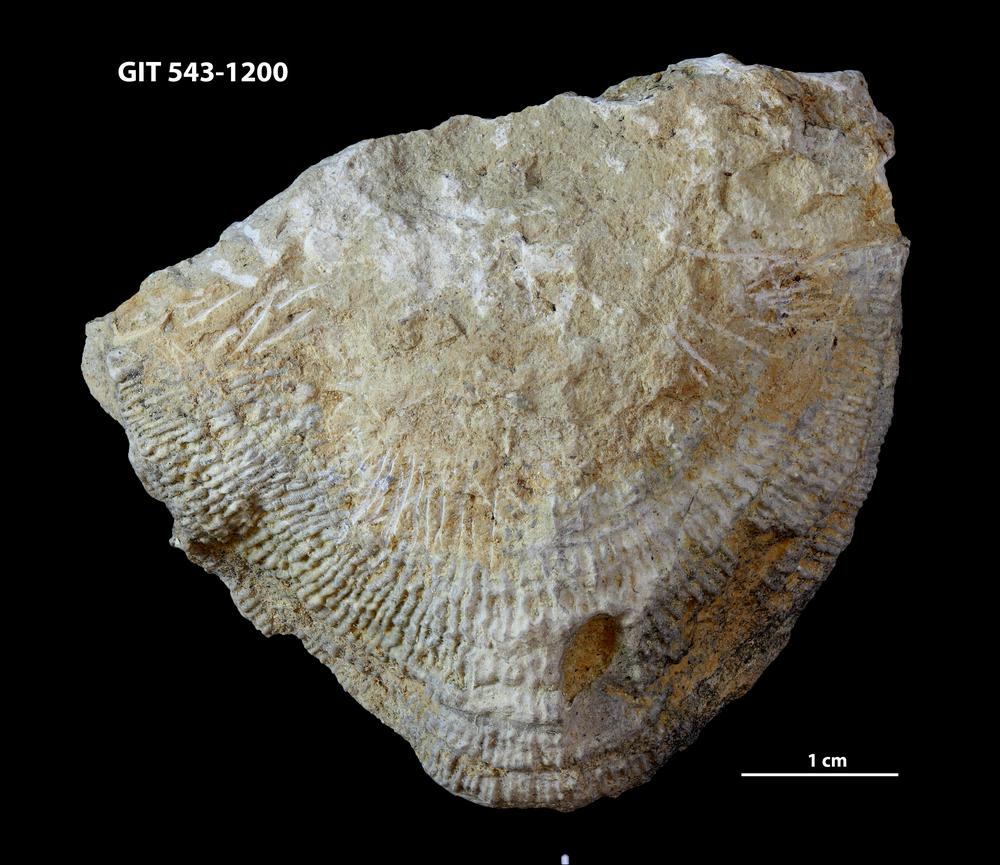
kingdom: Animalia
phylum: Brachiopoda
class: Rhynchonellata
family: Clitambonitidae
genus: Ilmarinia
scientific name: Ilmarinia
